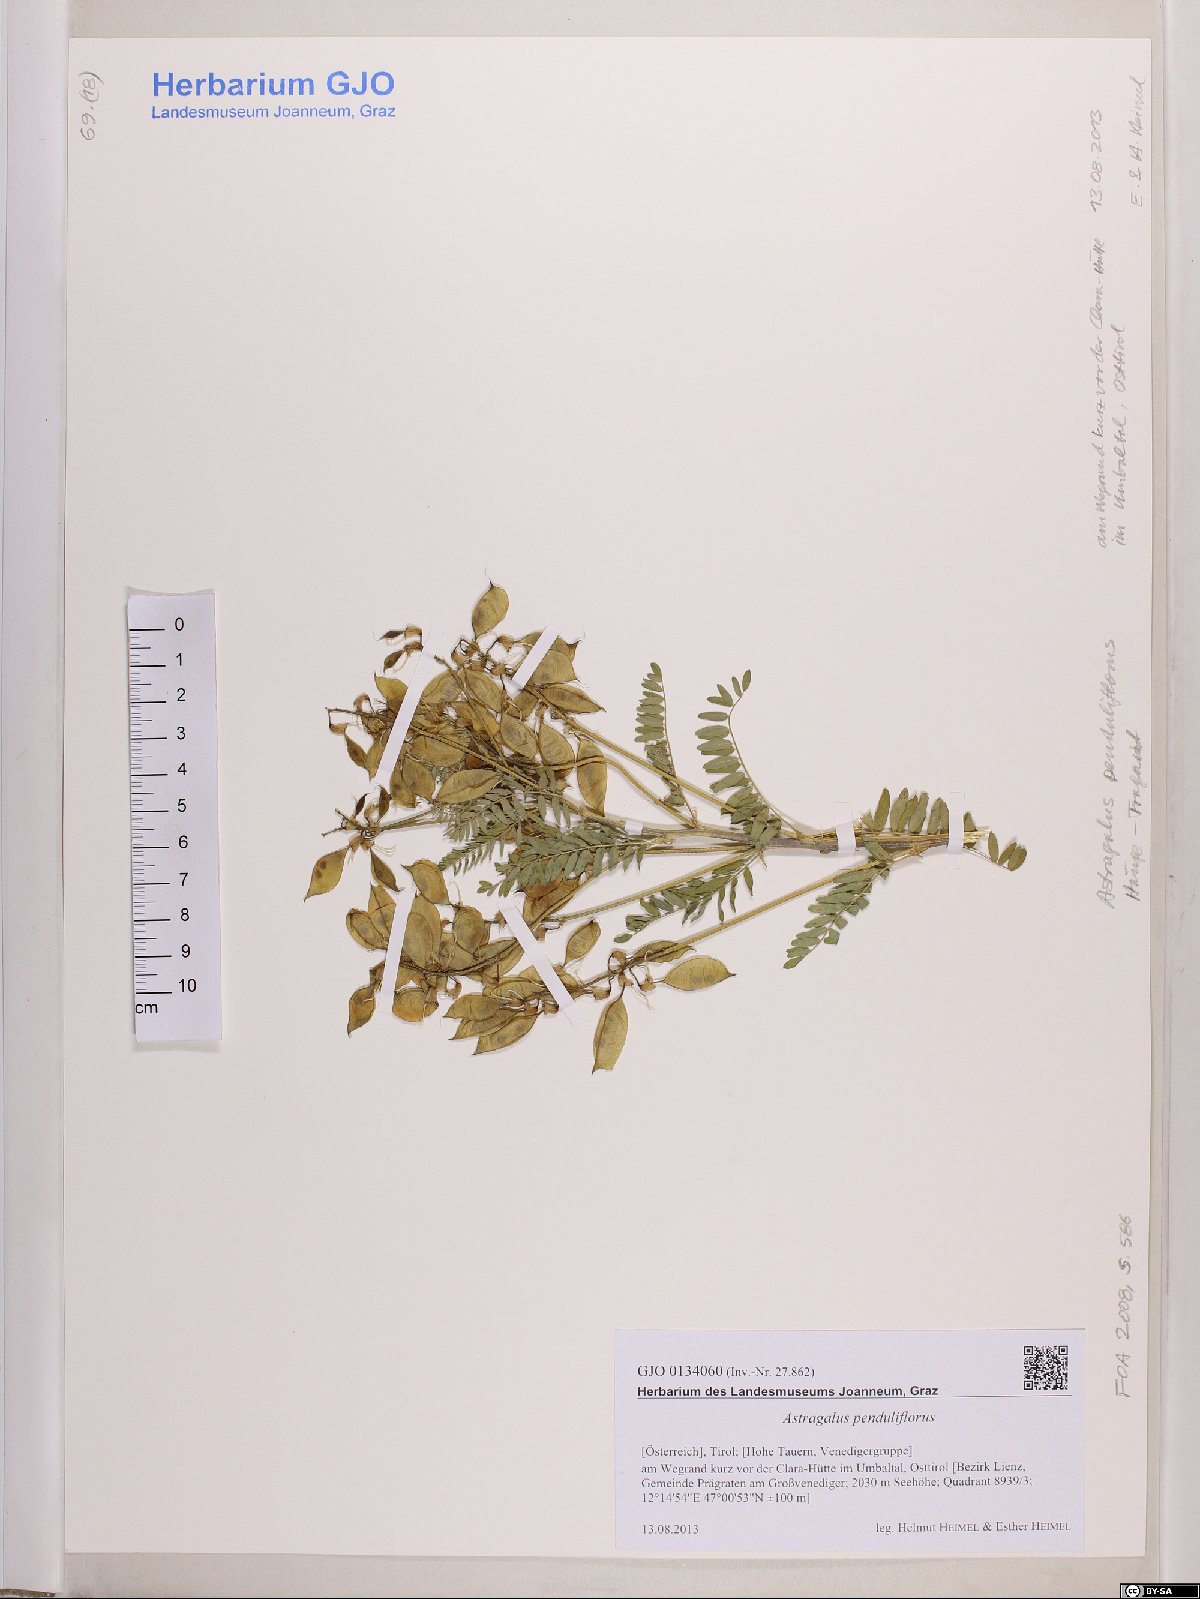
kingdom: Plantae
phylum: Tracheophyta
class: Magnoliopsida
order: Fabales
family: Fabaceae
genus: Astragalus
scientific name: Astragalus penduliflorus
